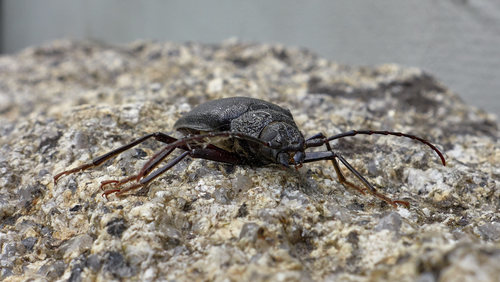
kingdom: Animalia
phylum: Arthropoda
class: Insecta
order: Coleoptera
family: Cerambycidae
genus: Ergates
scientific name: Ergates faber
